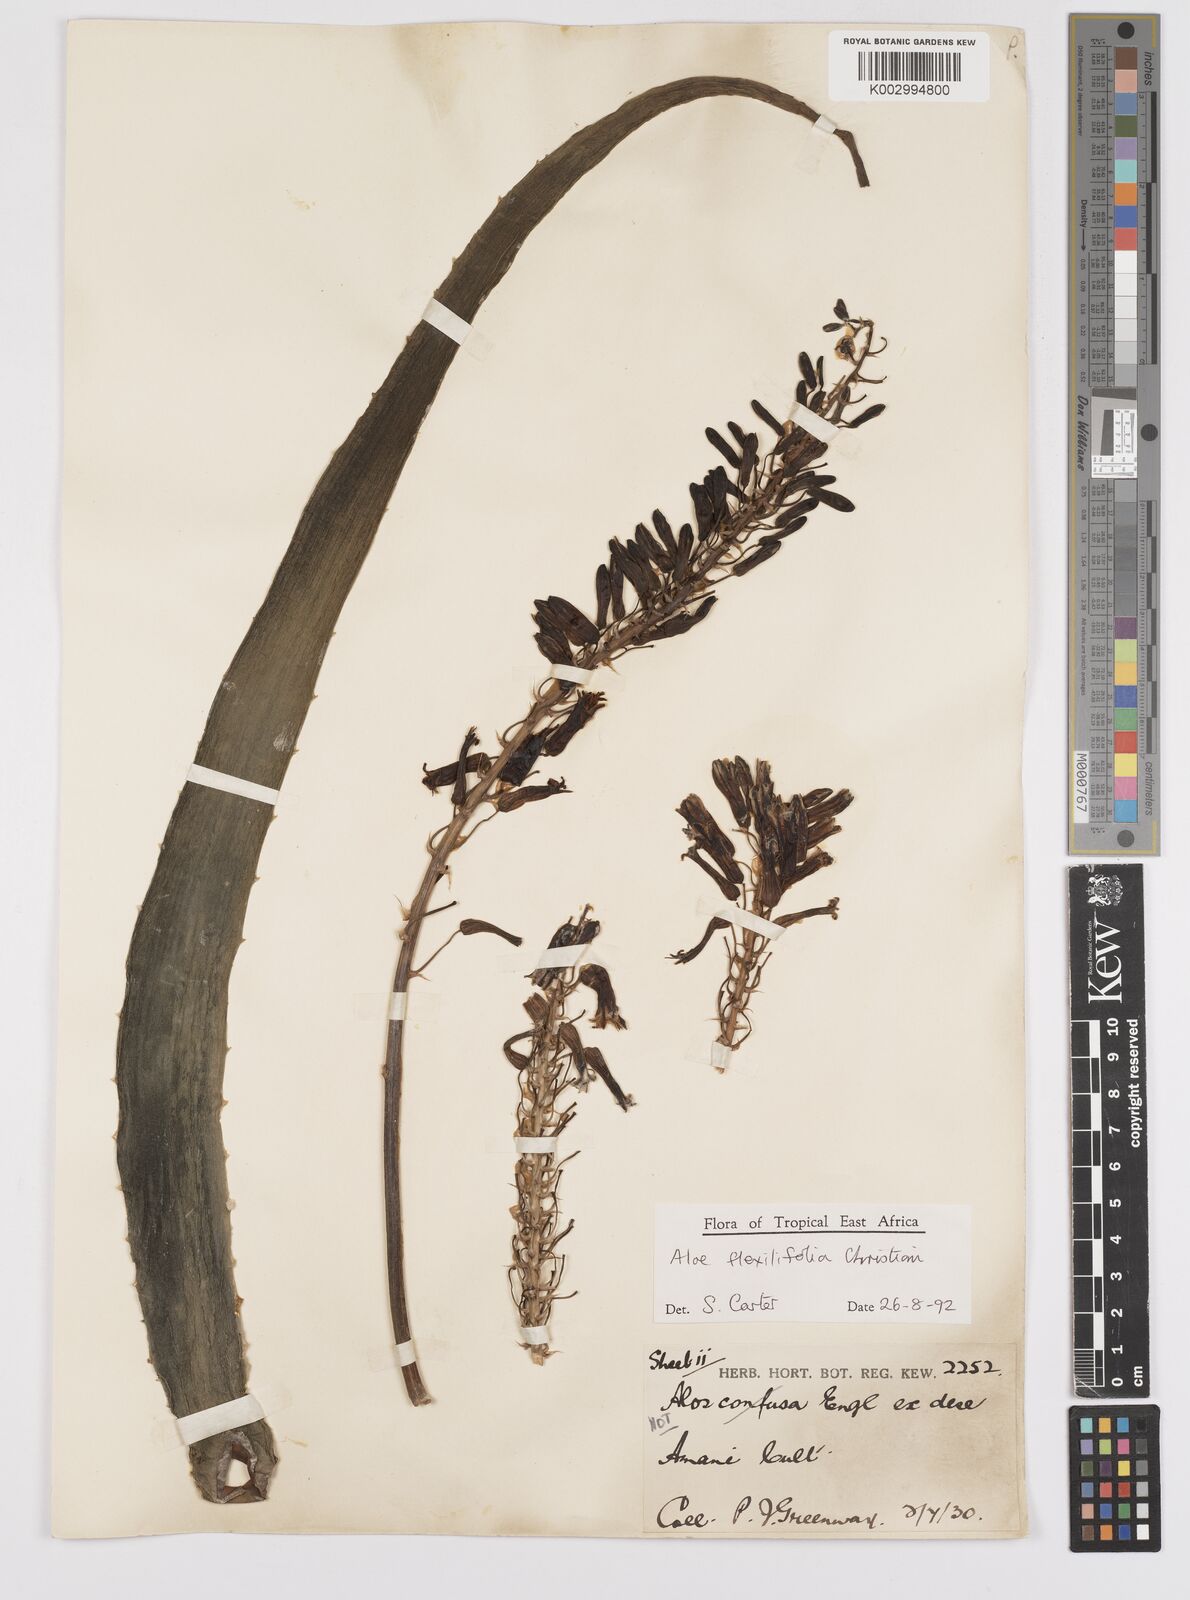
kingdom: Plantae
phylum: Tracheophyta
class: Liliopsida
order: Asparagales
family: Asphodelaceae
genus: Aloe
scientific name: Aloe flexilifolia
